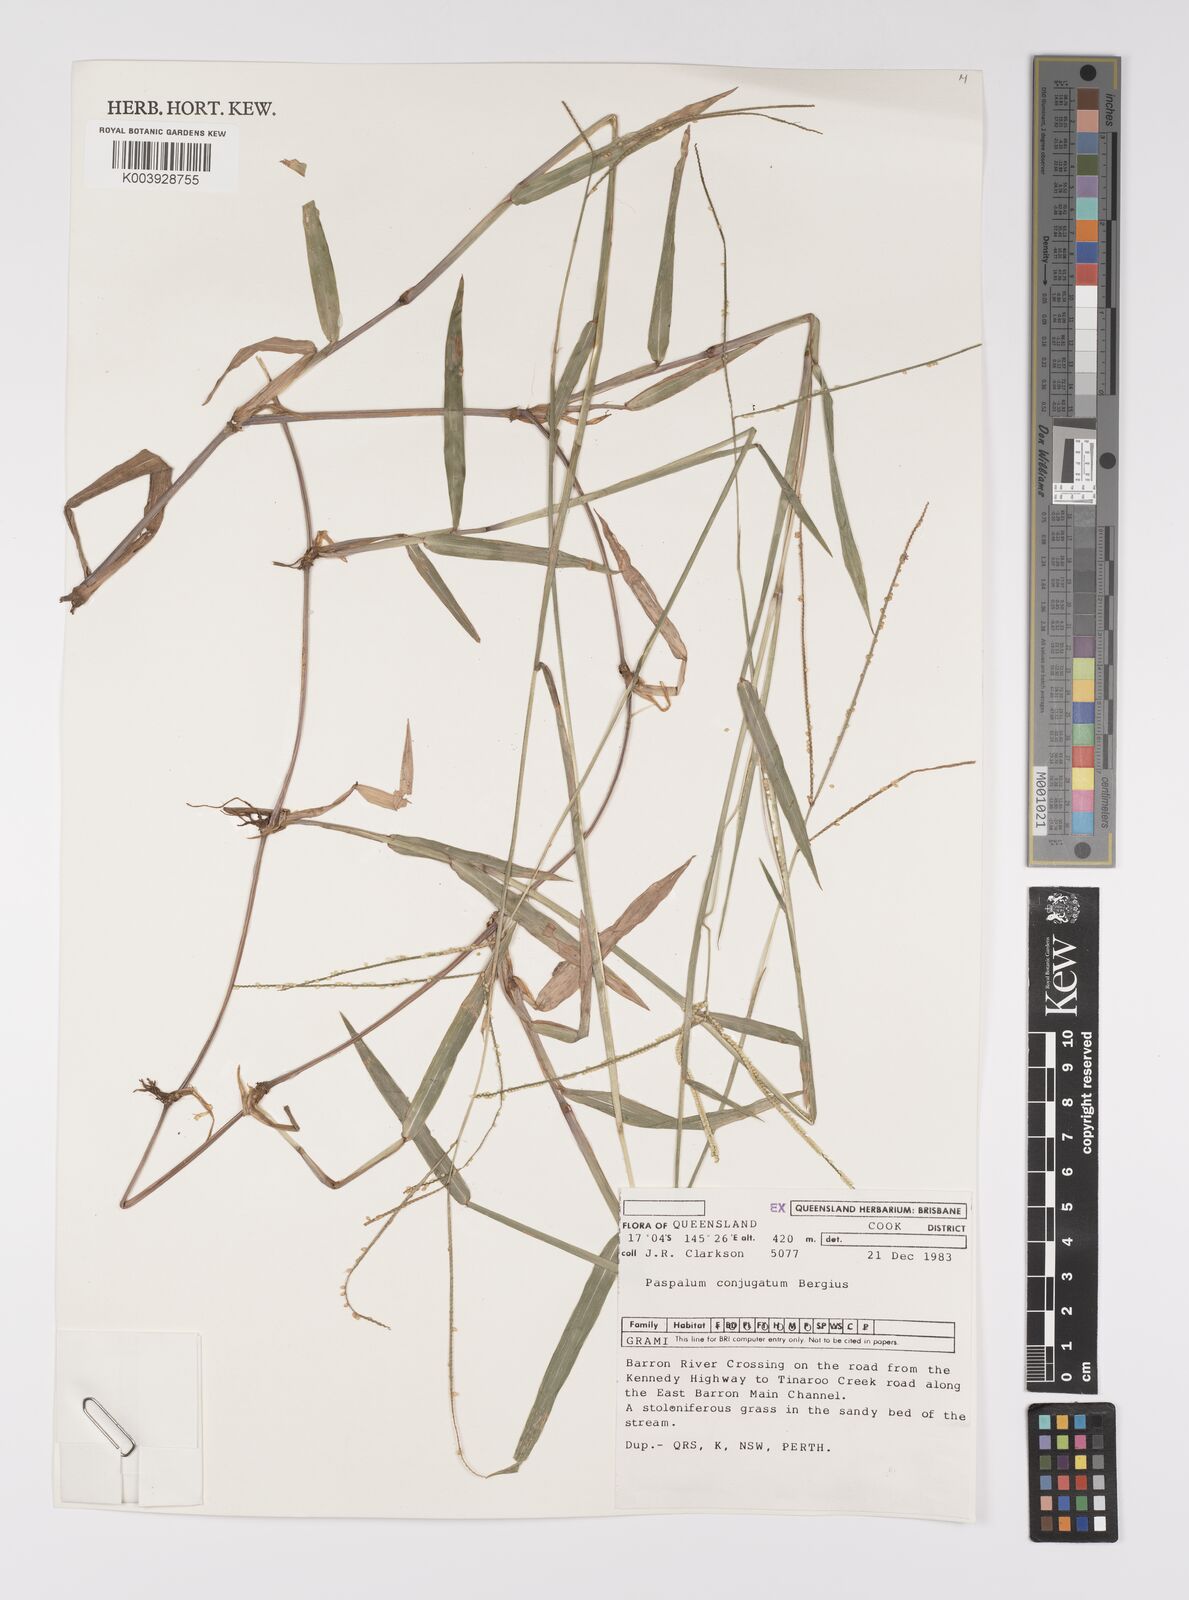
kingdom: Plantae
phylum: Tracheophyta
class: Liliopsida
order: Poales
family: Poaceae
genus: Paspalum
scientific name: Paspalum conjugatum
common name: Hilograss
